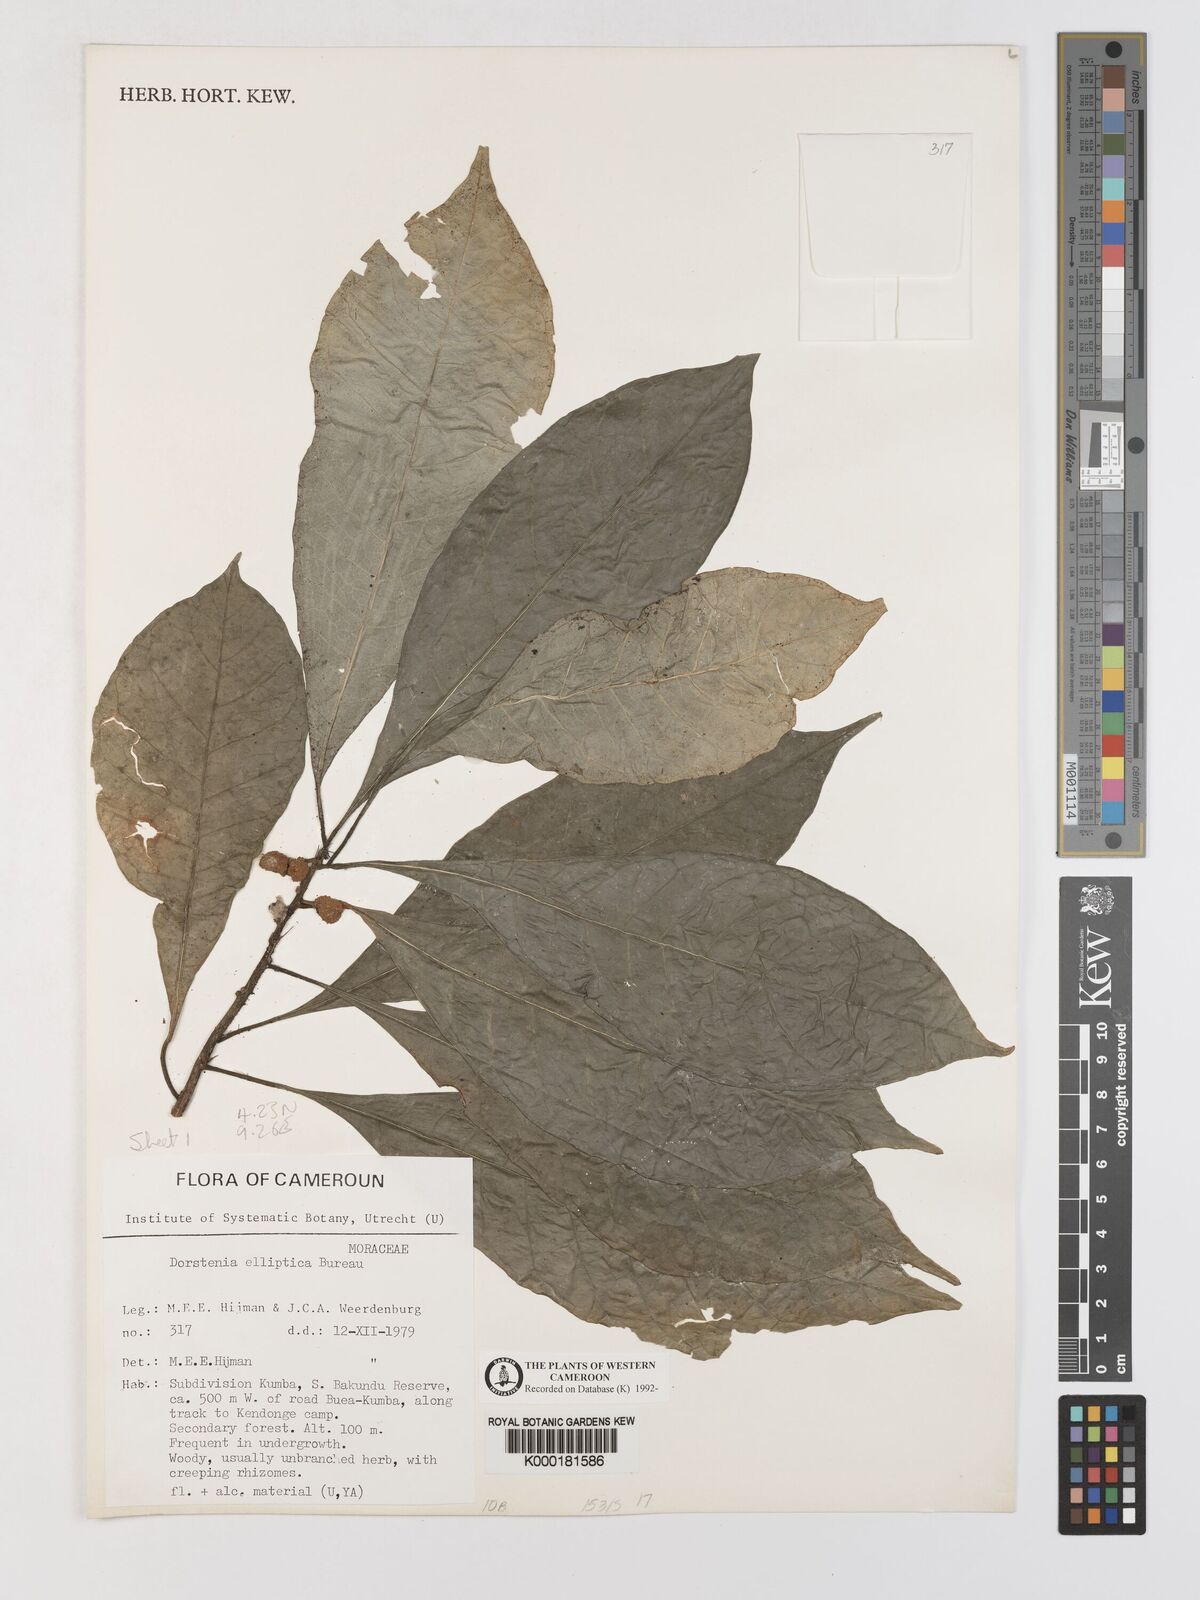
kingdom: Plantae
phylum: Tracheophyta
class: Magnoliopsida
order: Rosales
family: Moraceae
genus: Dorstenia
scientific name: Dorstenia elliptica
